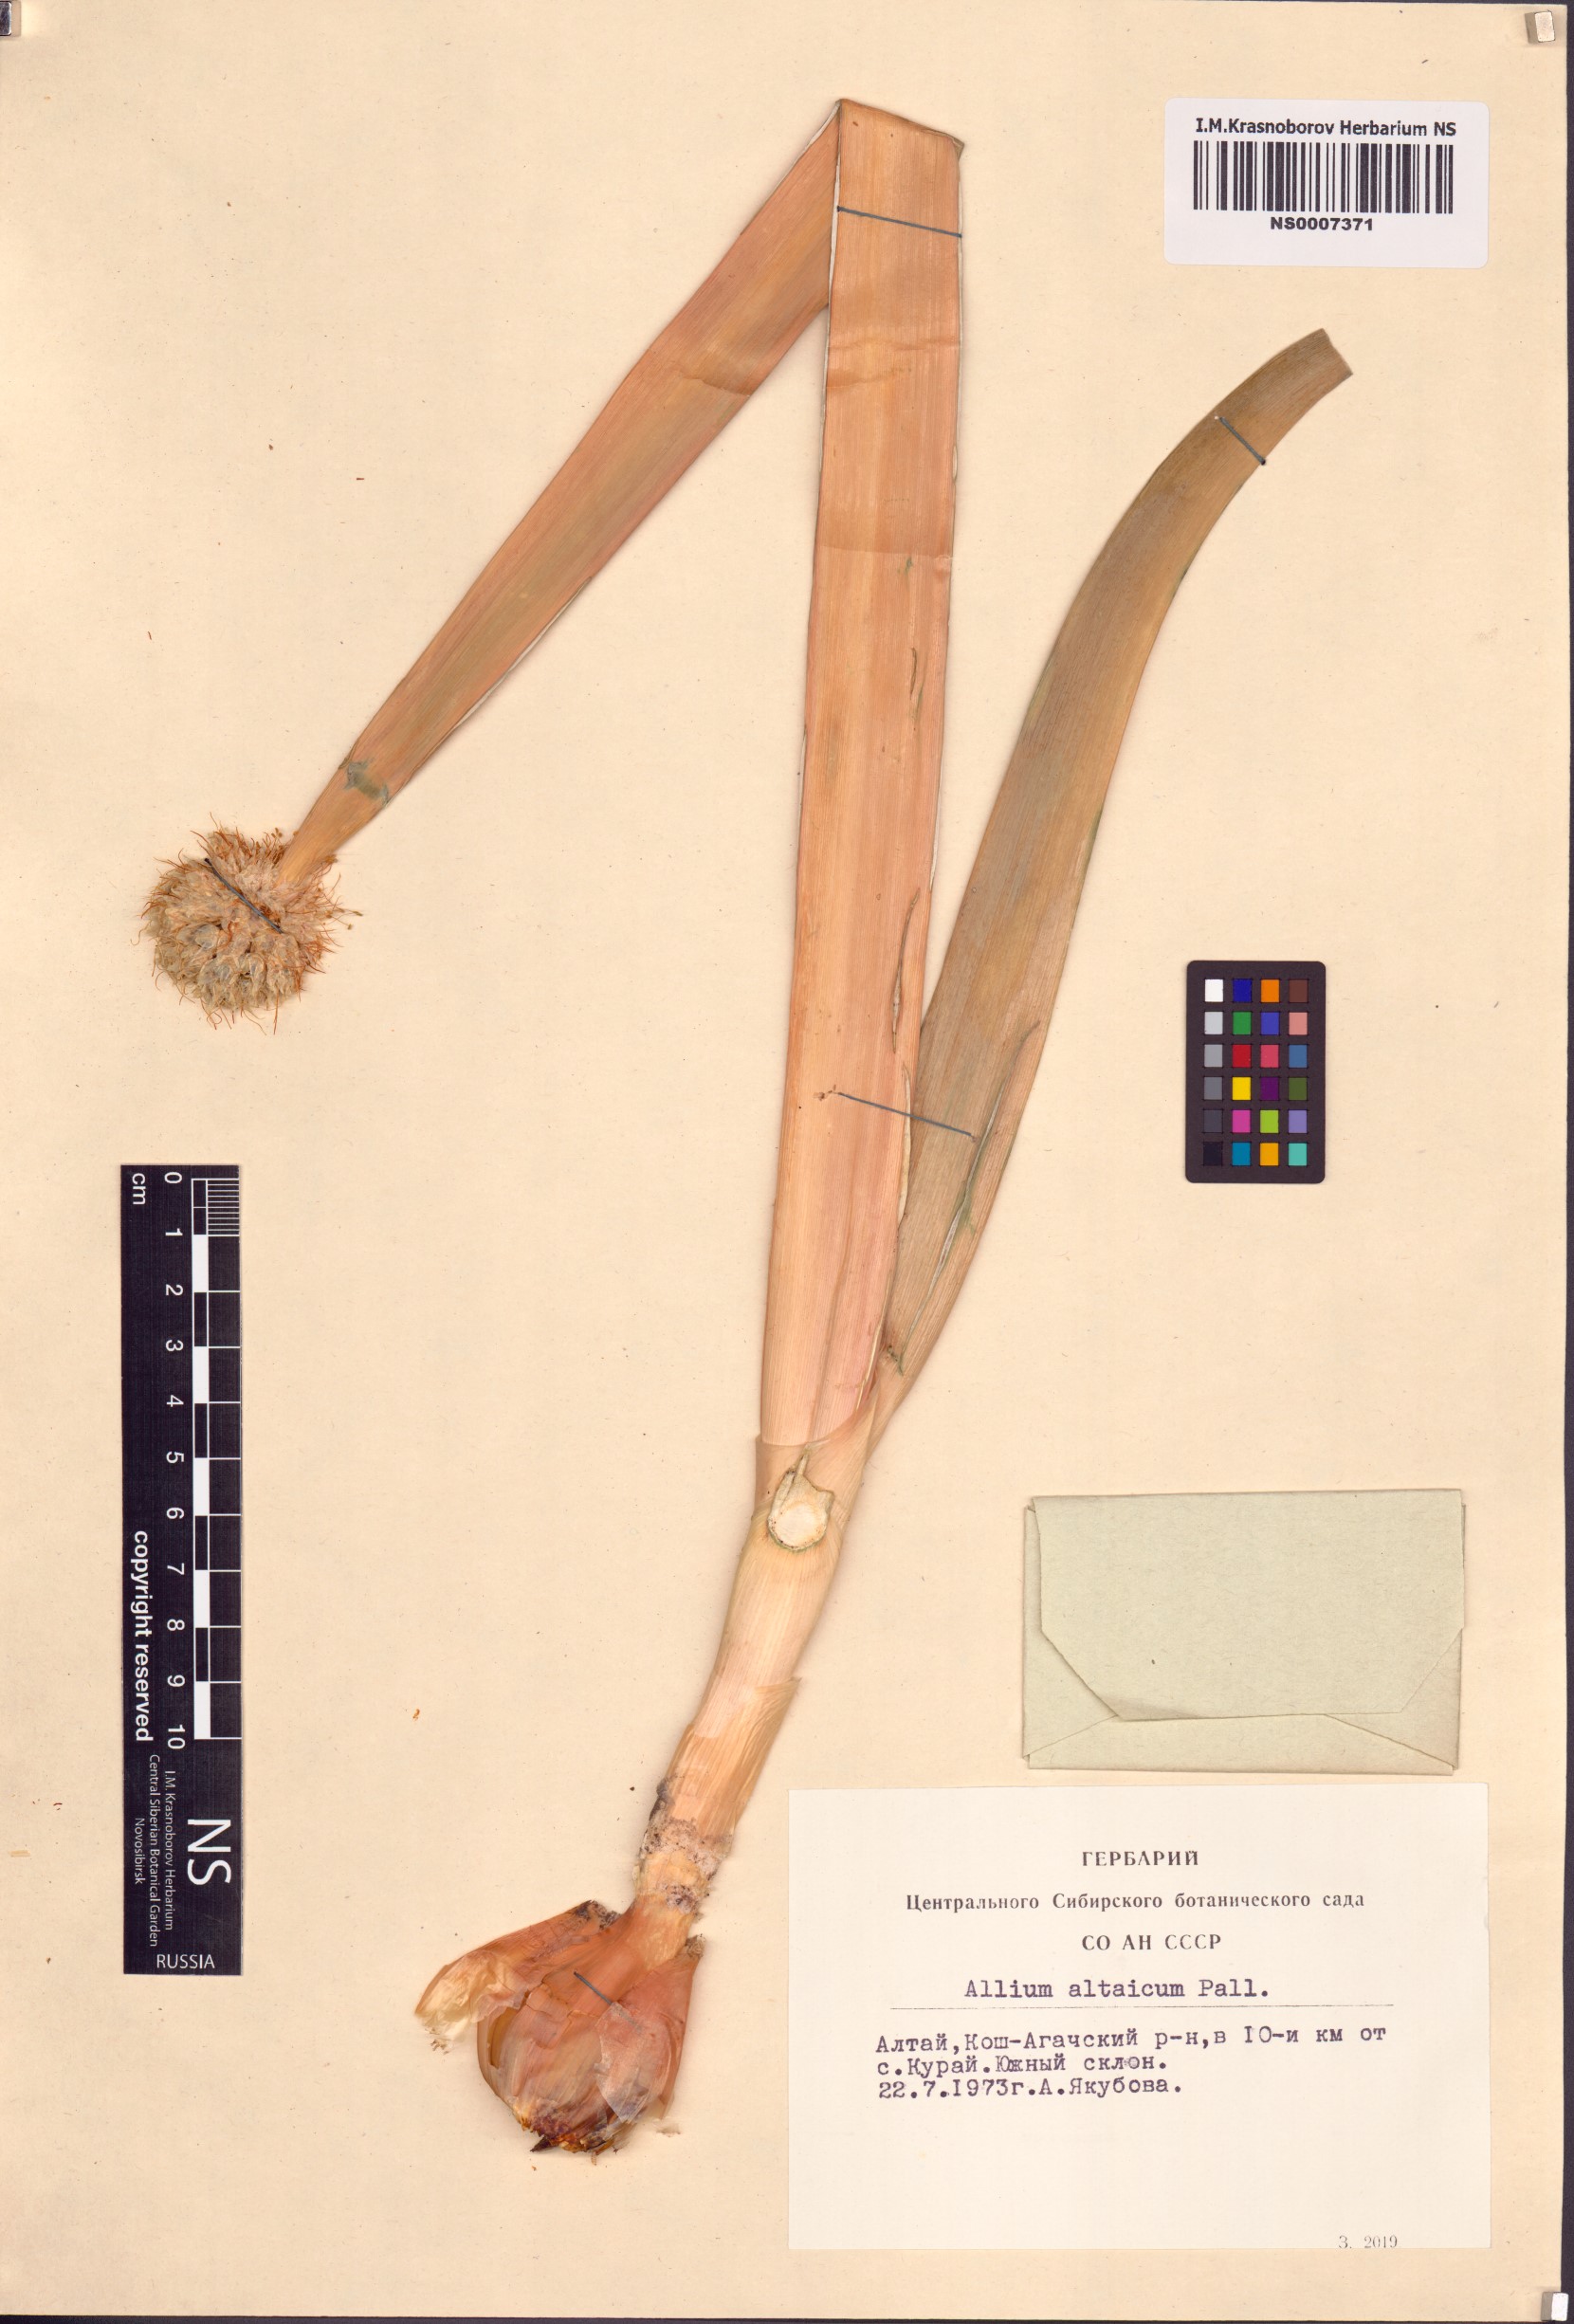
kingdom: Plantae
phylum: Tracheophyta
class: Liliopsida
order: Asparagales
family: Amaryllidaceae
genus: Allium
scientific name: Allium altaicum
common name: Altai onion
